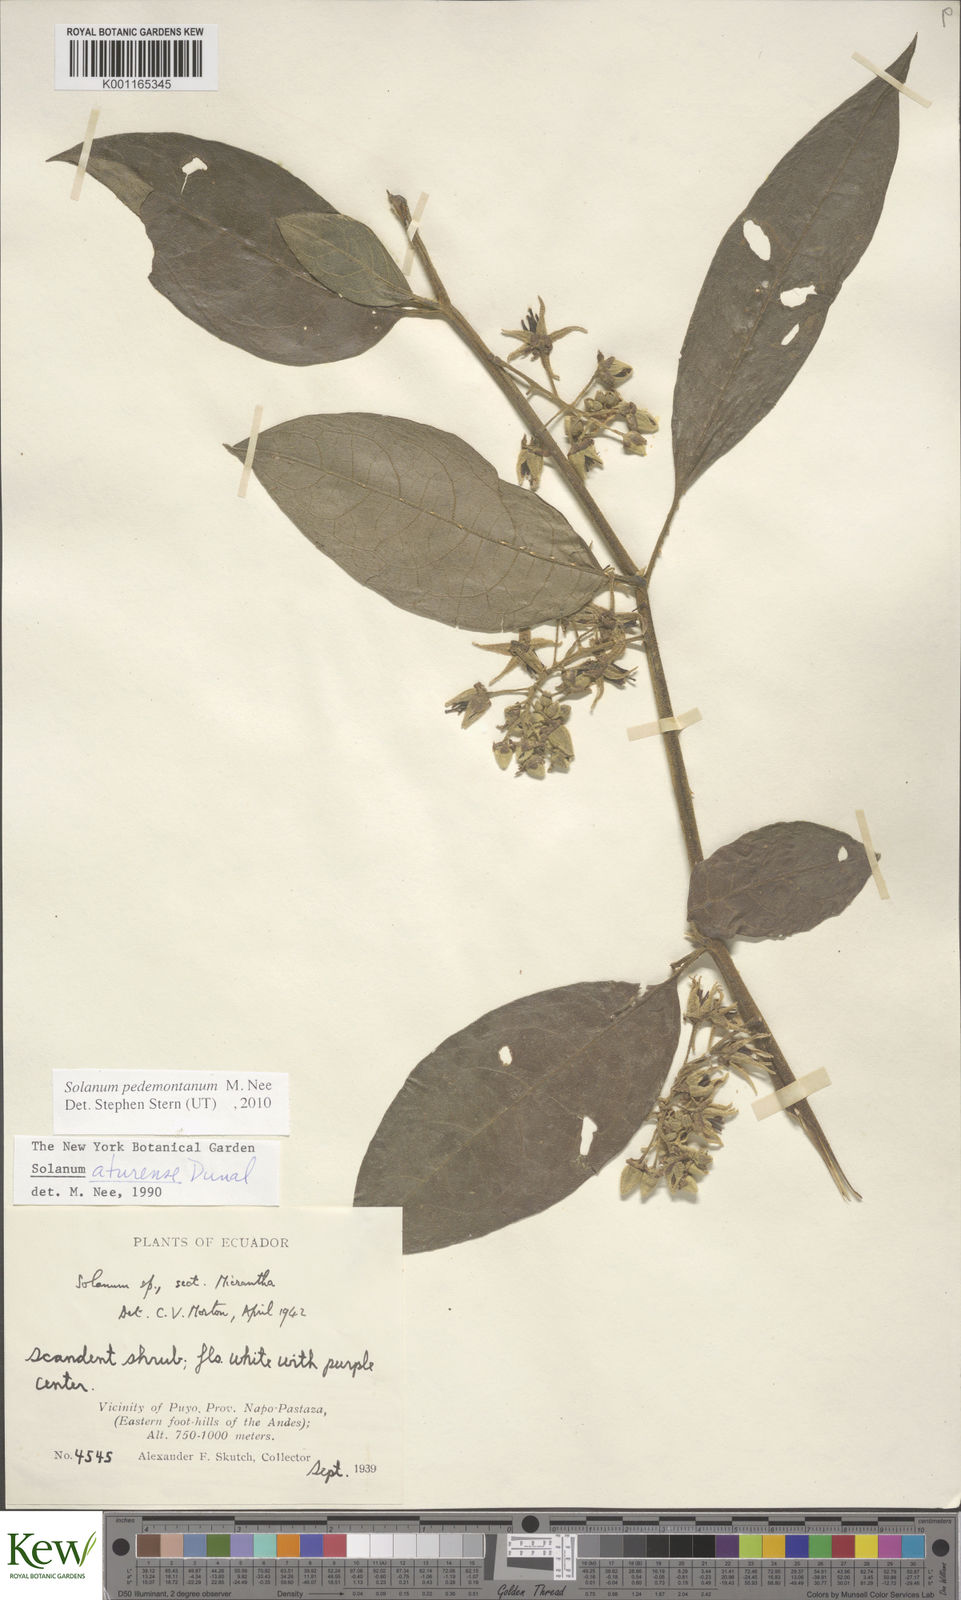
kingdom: Plantae
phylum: Tracheophyta
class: Magnoliopsida
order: Solanales
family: Solanaceae
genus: Solanum
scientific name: Solanum pedemontanum
